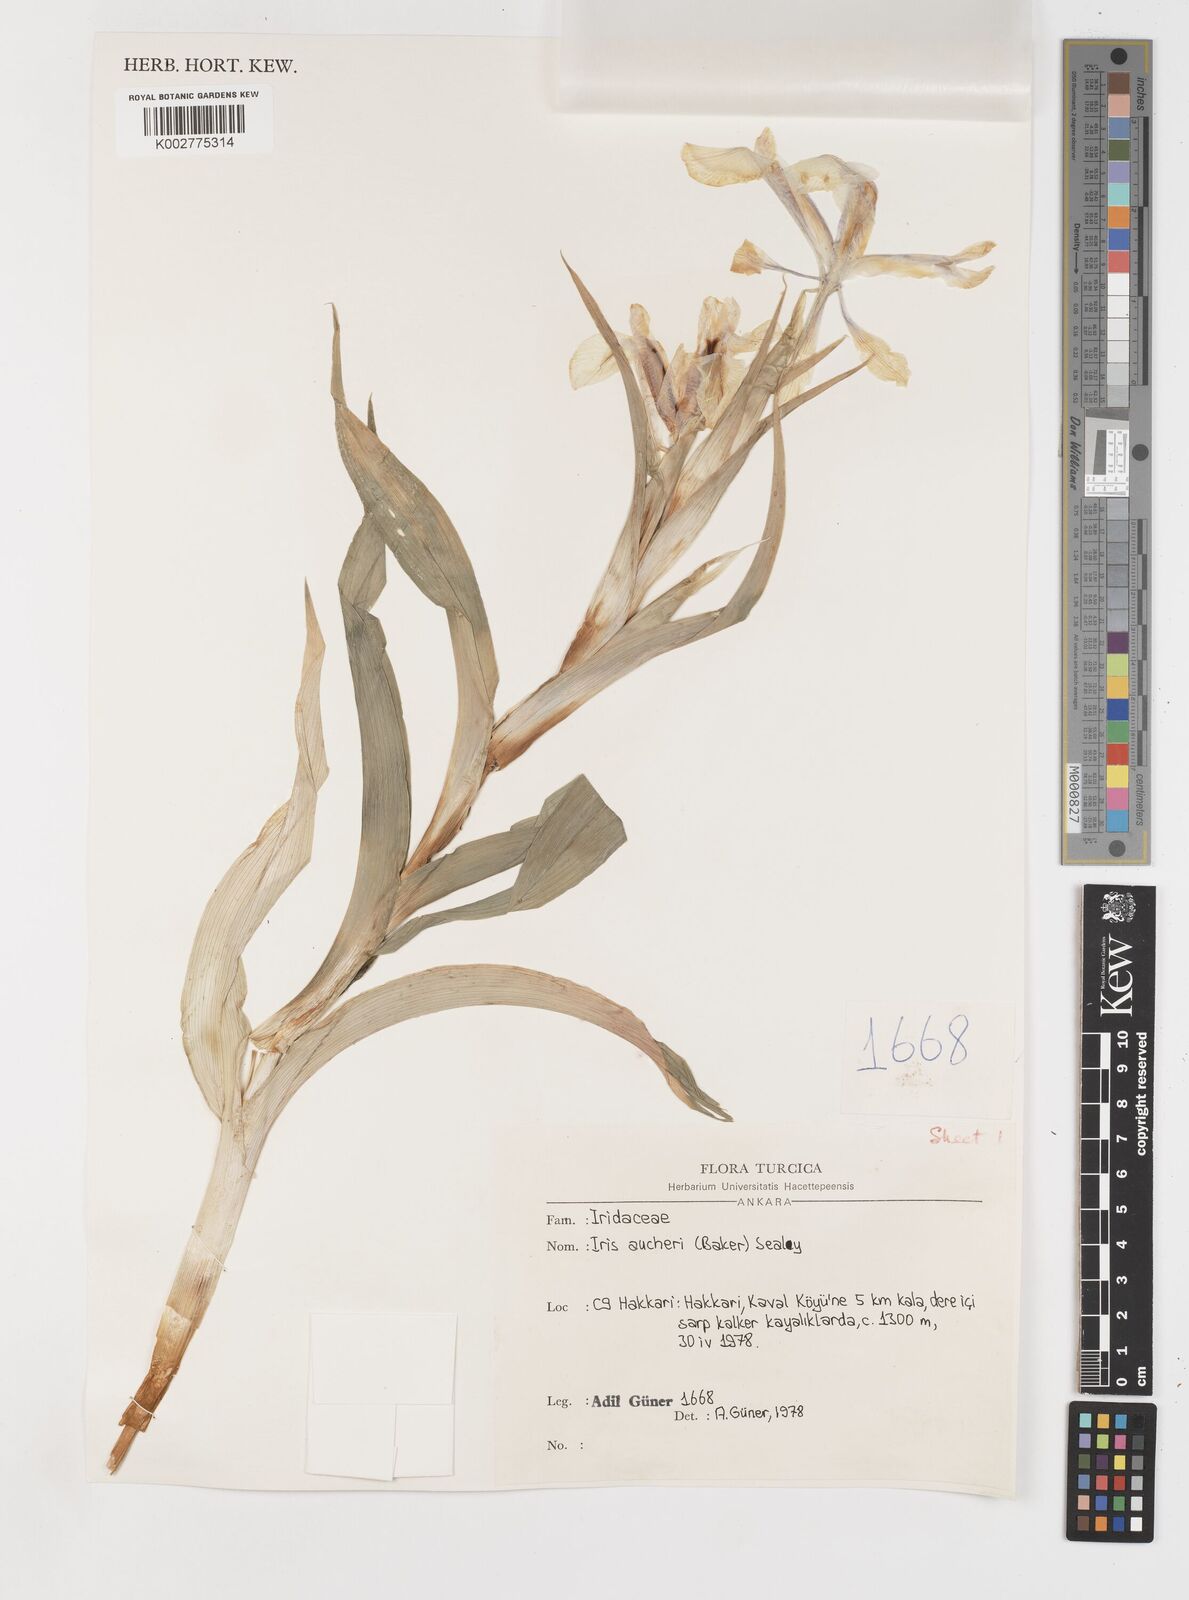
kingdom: Plantae
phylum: Tracheophyta
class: Liliopsida
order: Asparagales
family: Iridaceae
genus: Iris
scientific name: Iris aucheri
